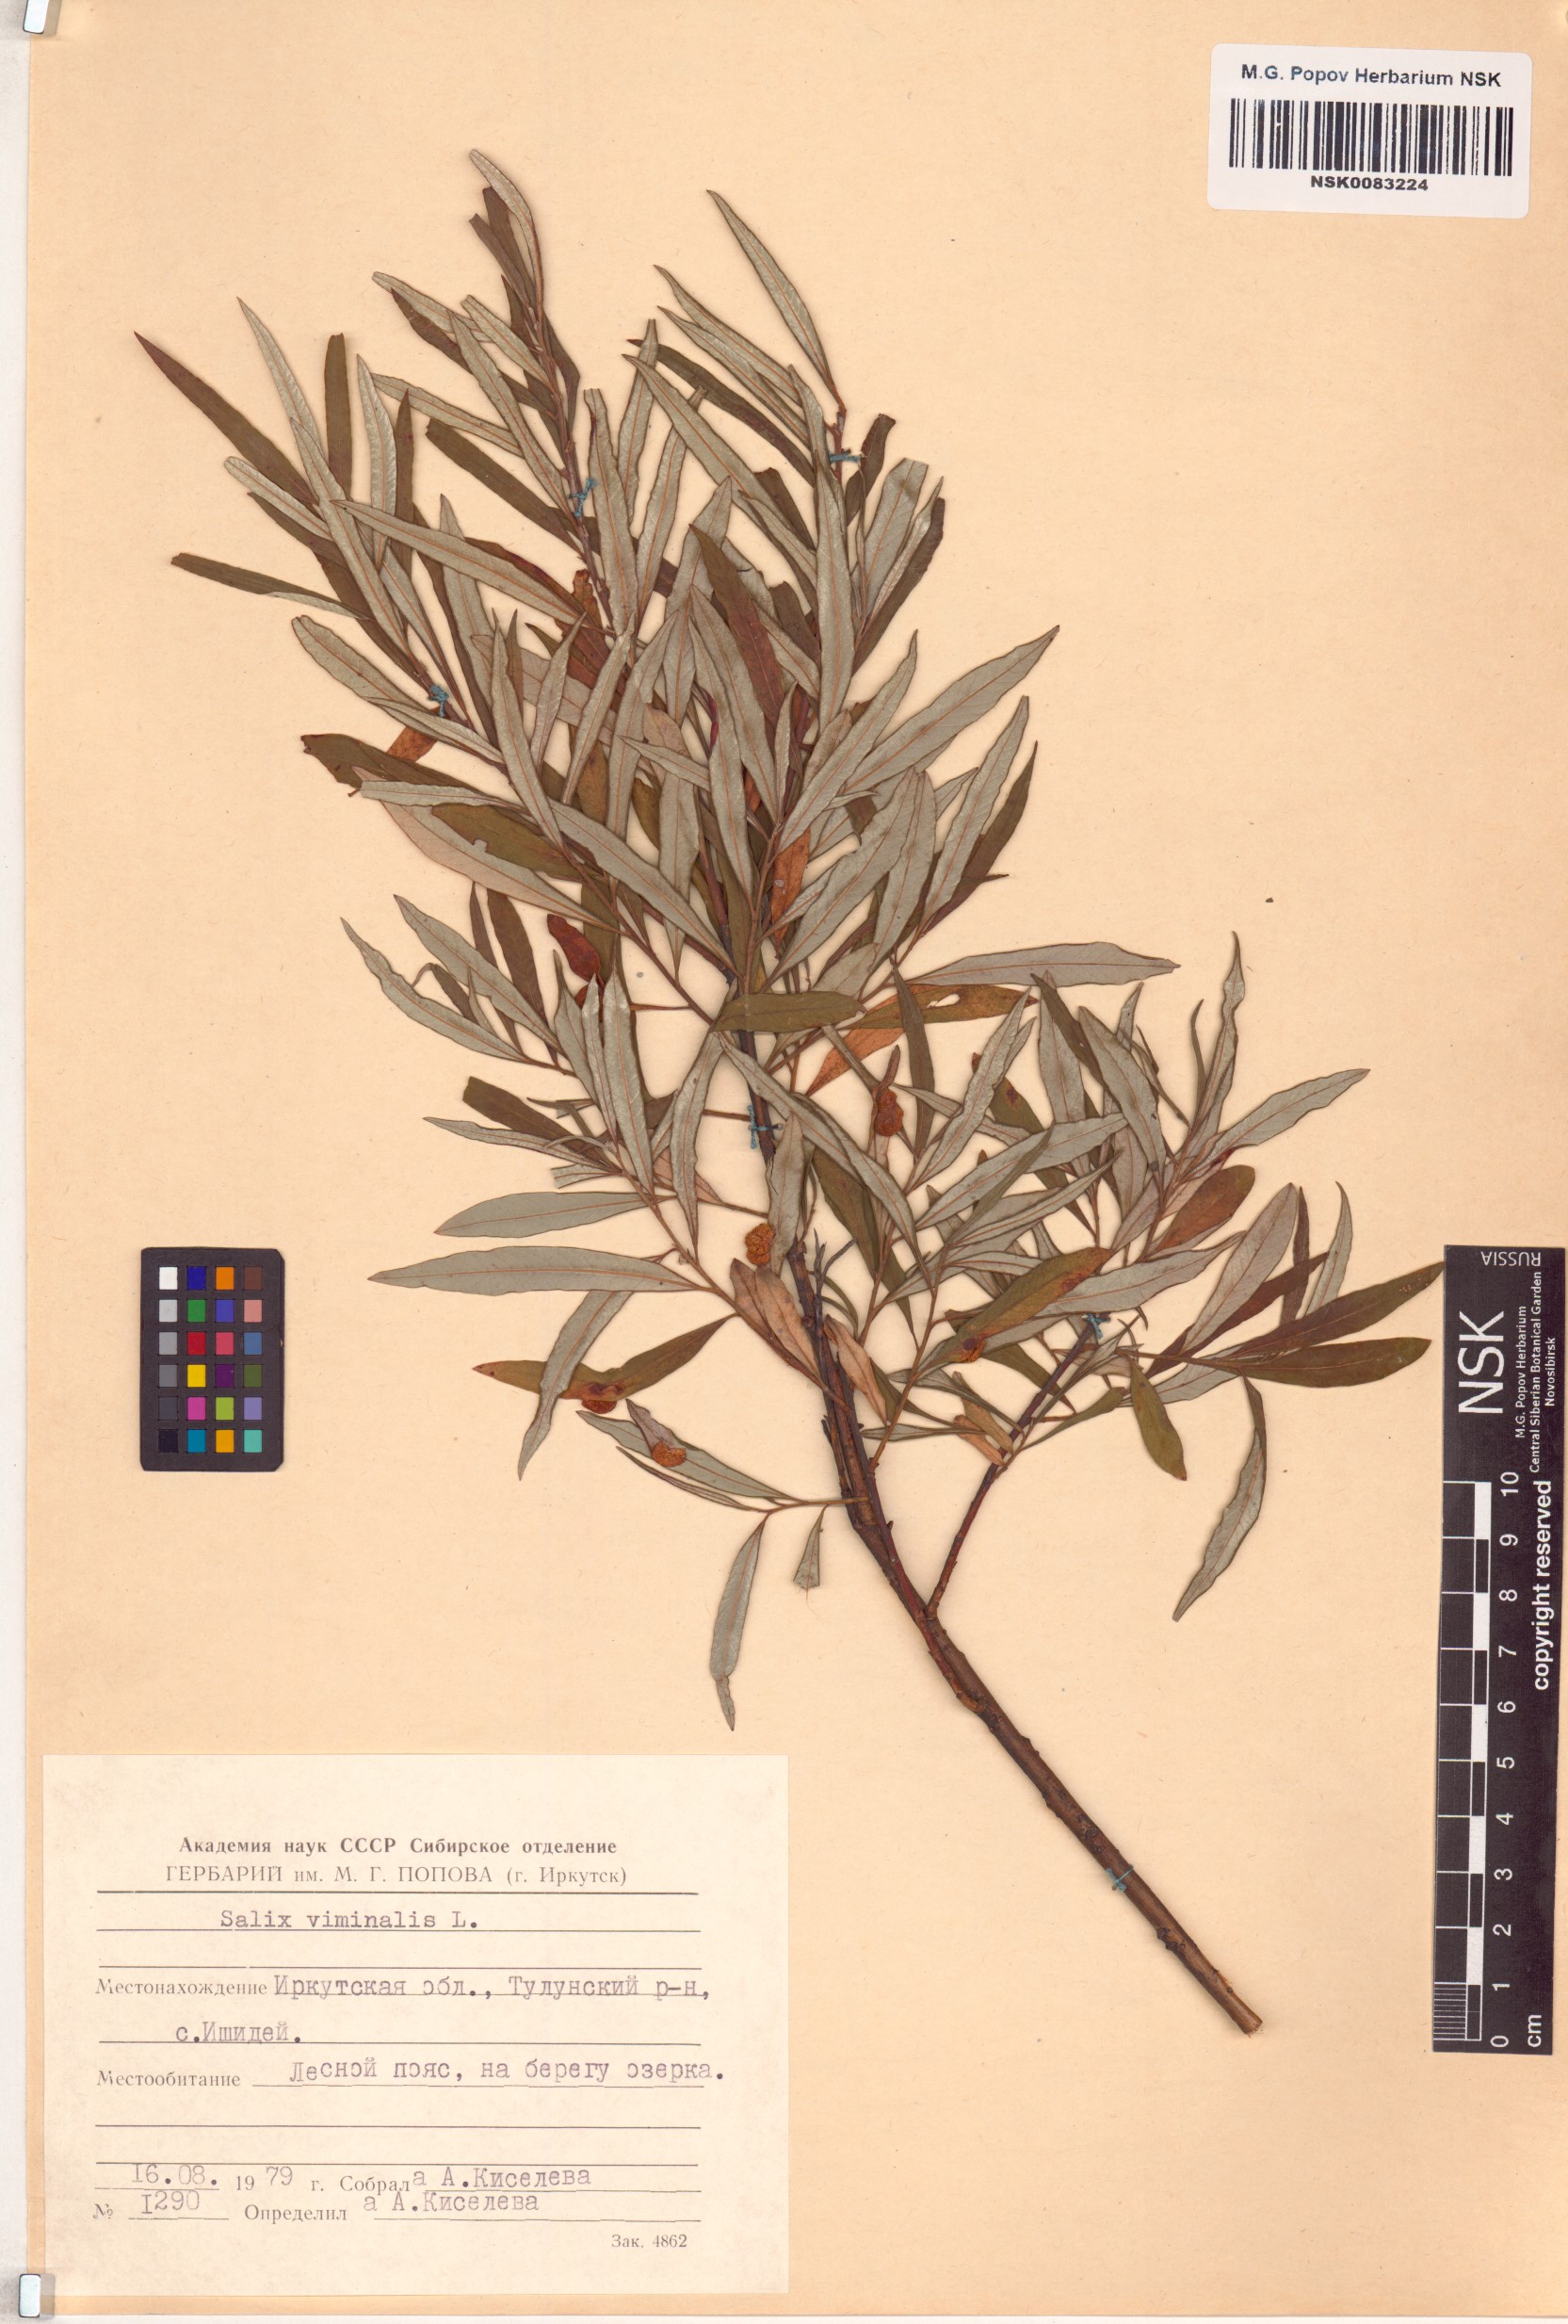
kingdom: Plantae
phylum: Tracheophyta
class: Magnoliopsida
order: Malpighiales
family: Salicaceae
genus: Salix
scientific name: Salix viminalis
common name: Osier
